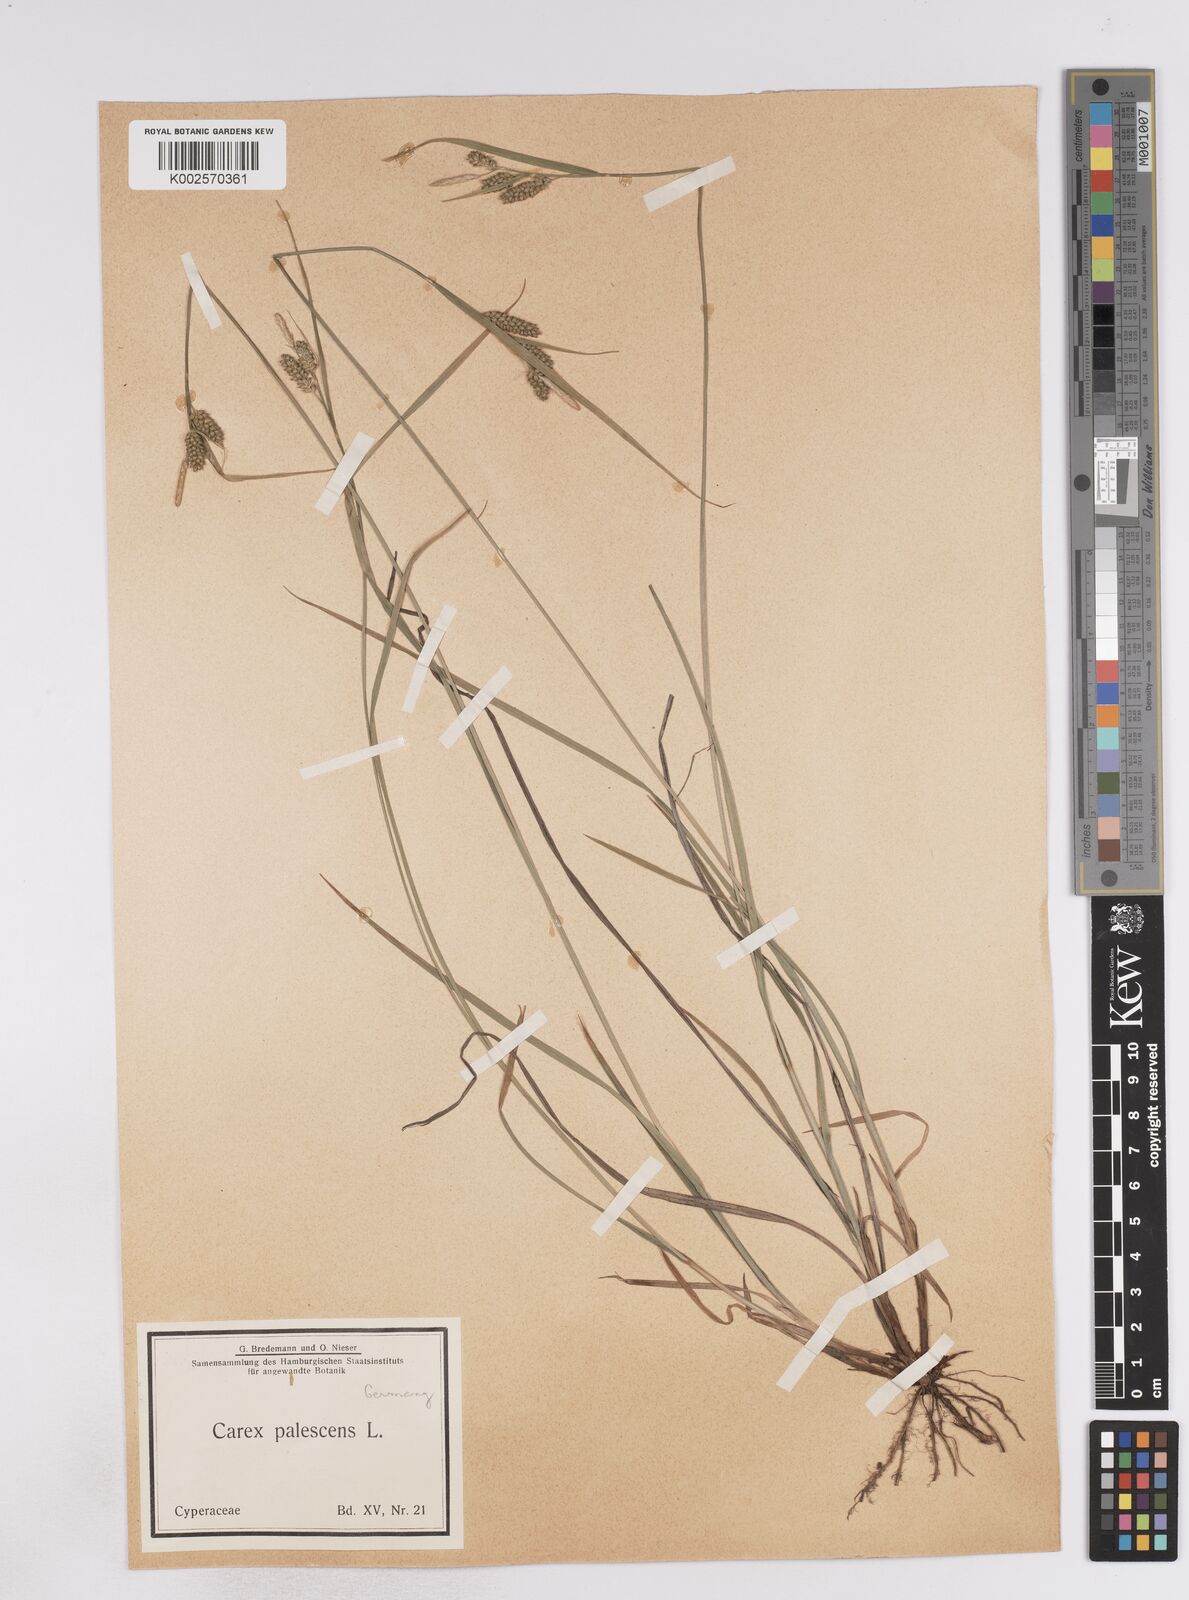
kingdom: Plantae
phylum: Tracheophyta
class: Liliopsida
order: Poales
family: Cyperaceae
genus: Carex
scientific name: Carex pallescens
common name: Pale sedge
